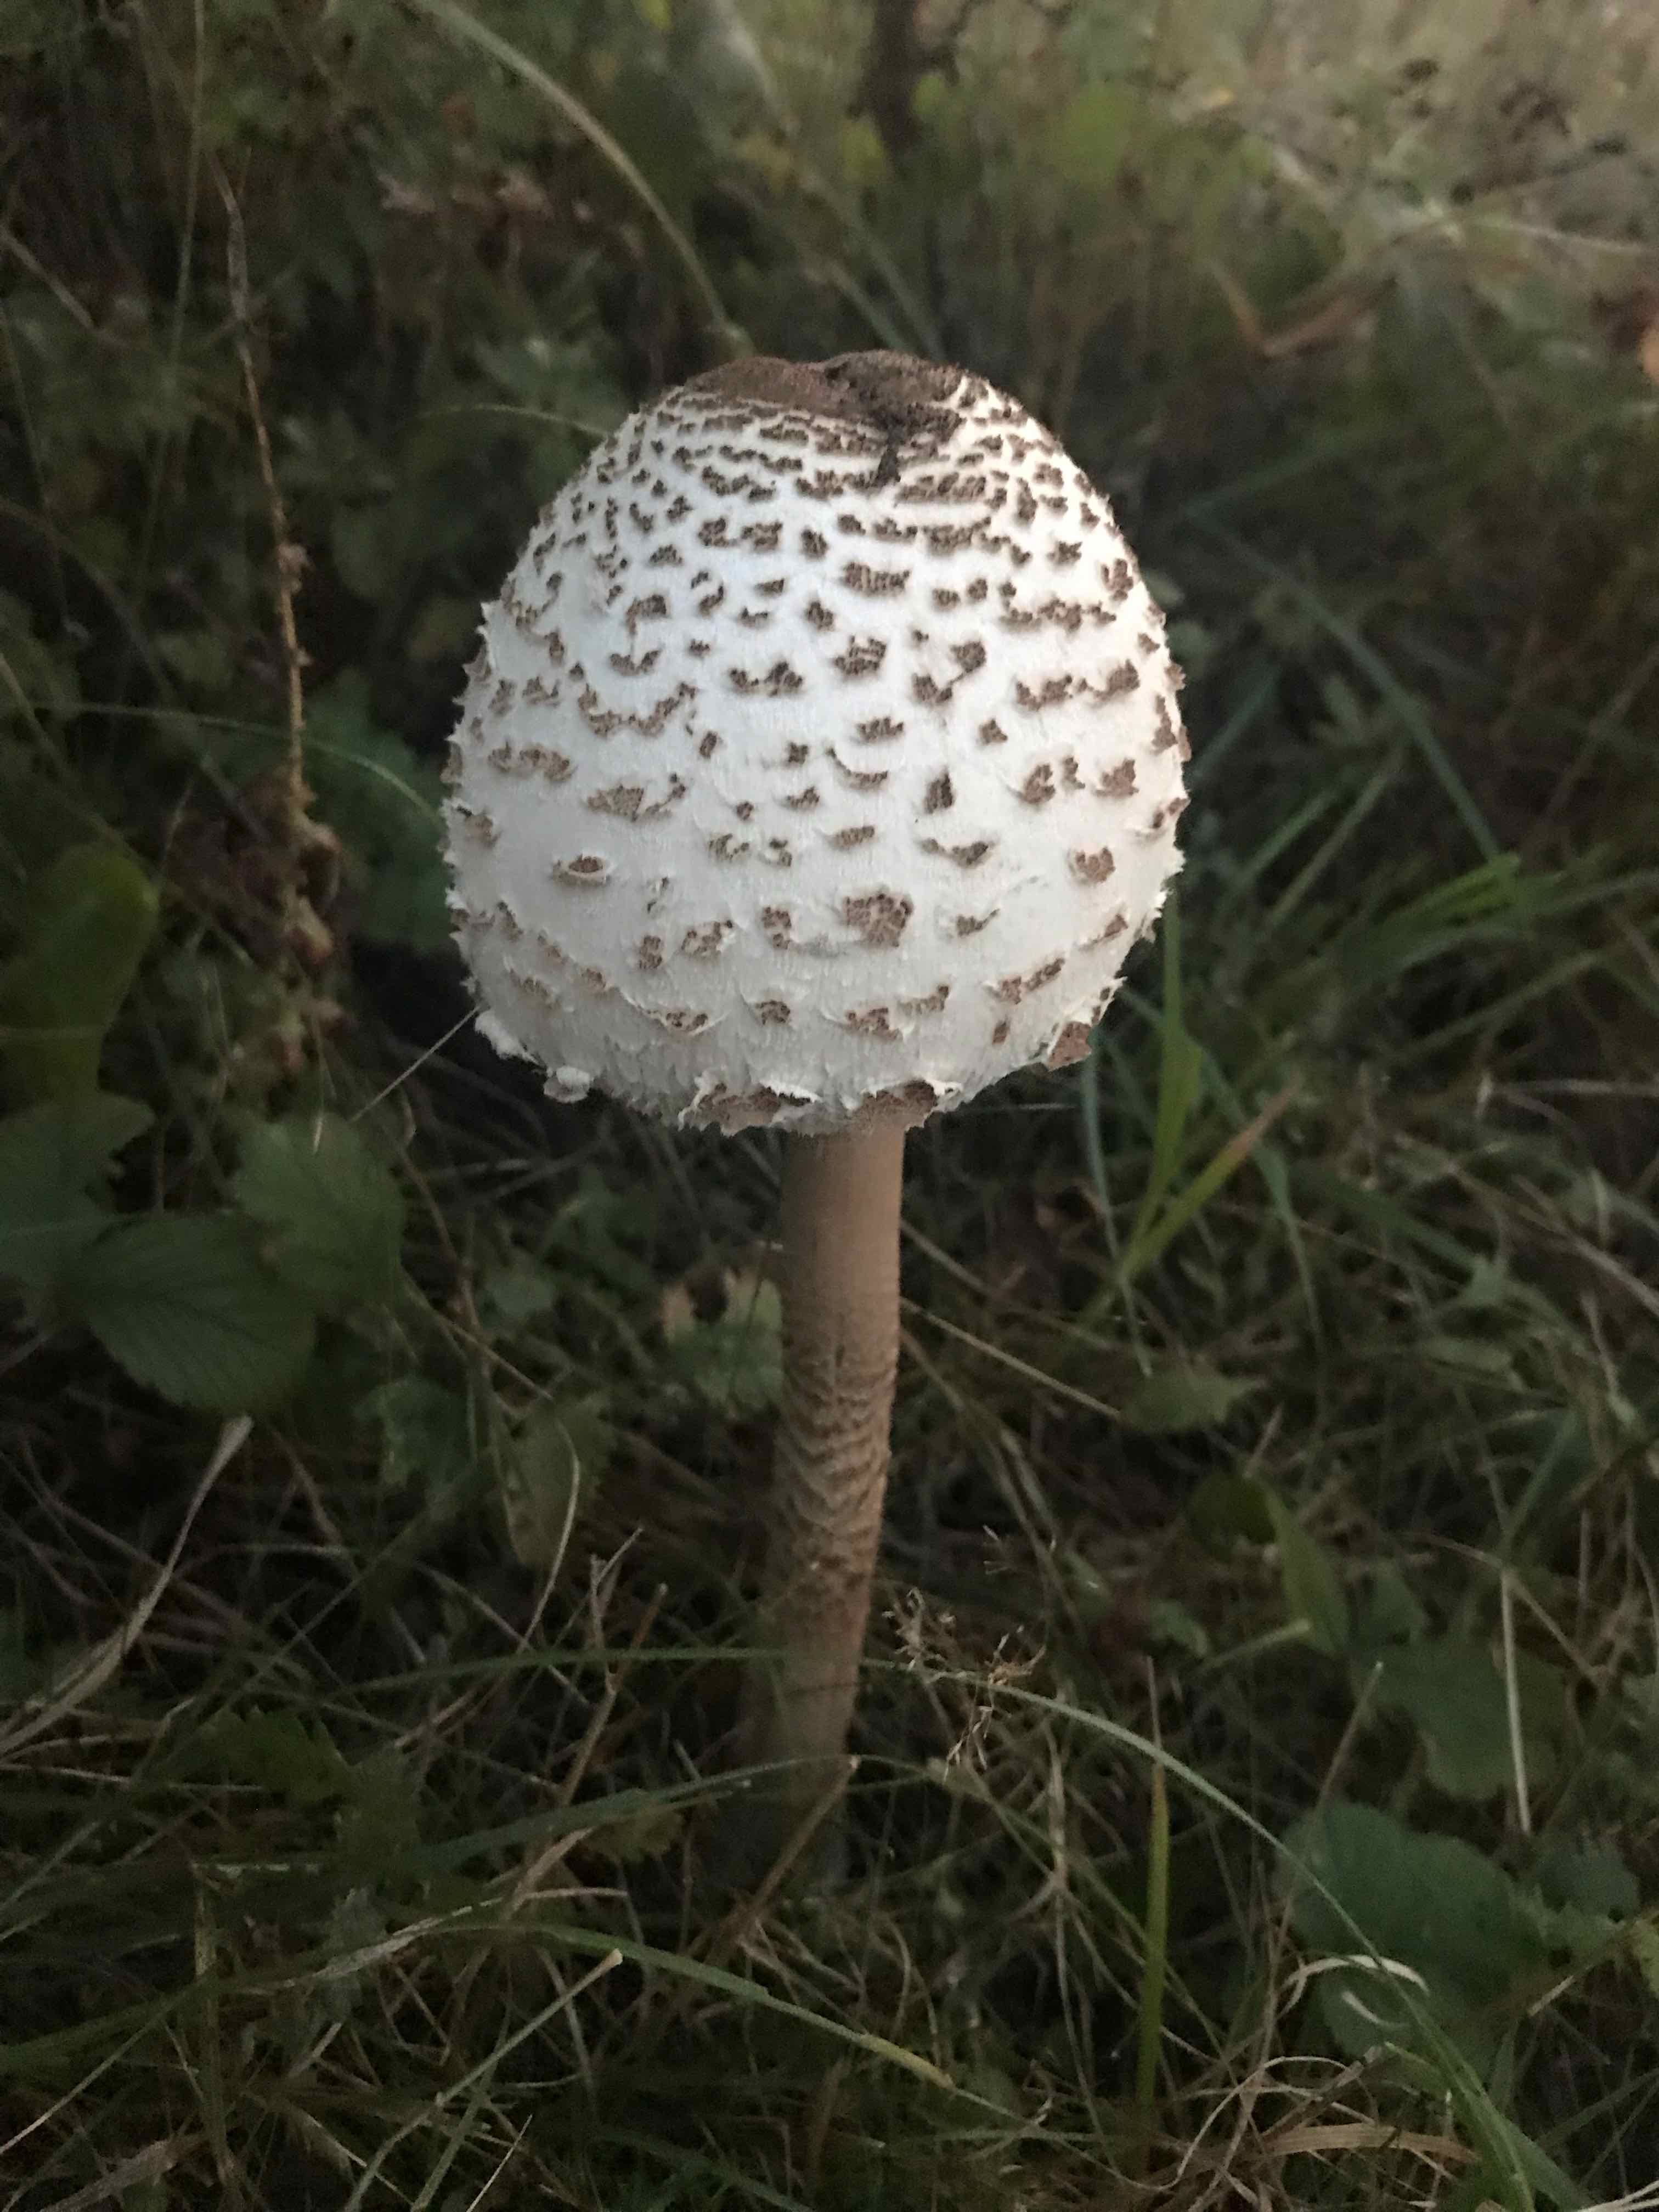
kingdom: Fungi
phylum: Basidiomycota
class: Agaricomycetes
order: Agaricales
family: Agaricaceae
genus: Macrolepiota
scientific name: Macrolepiota procera
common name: stor kæmpeparasolhat
